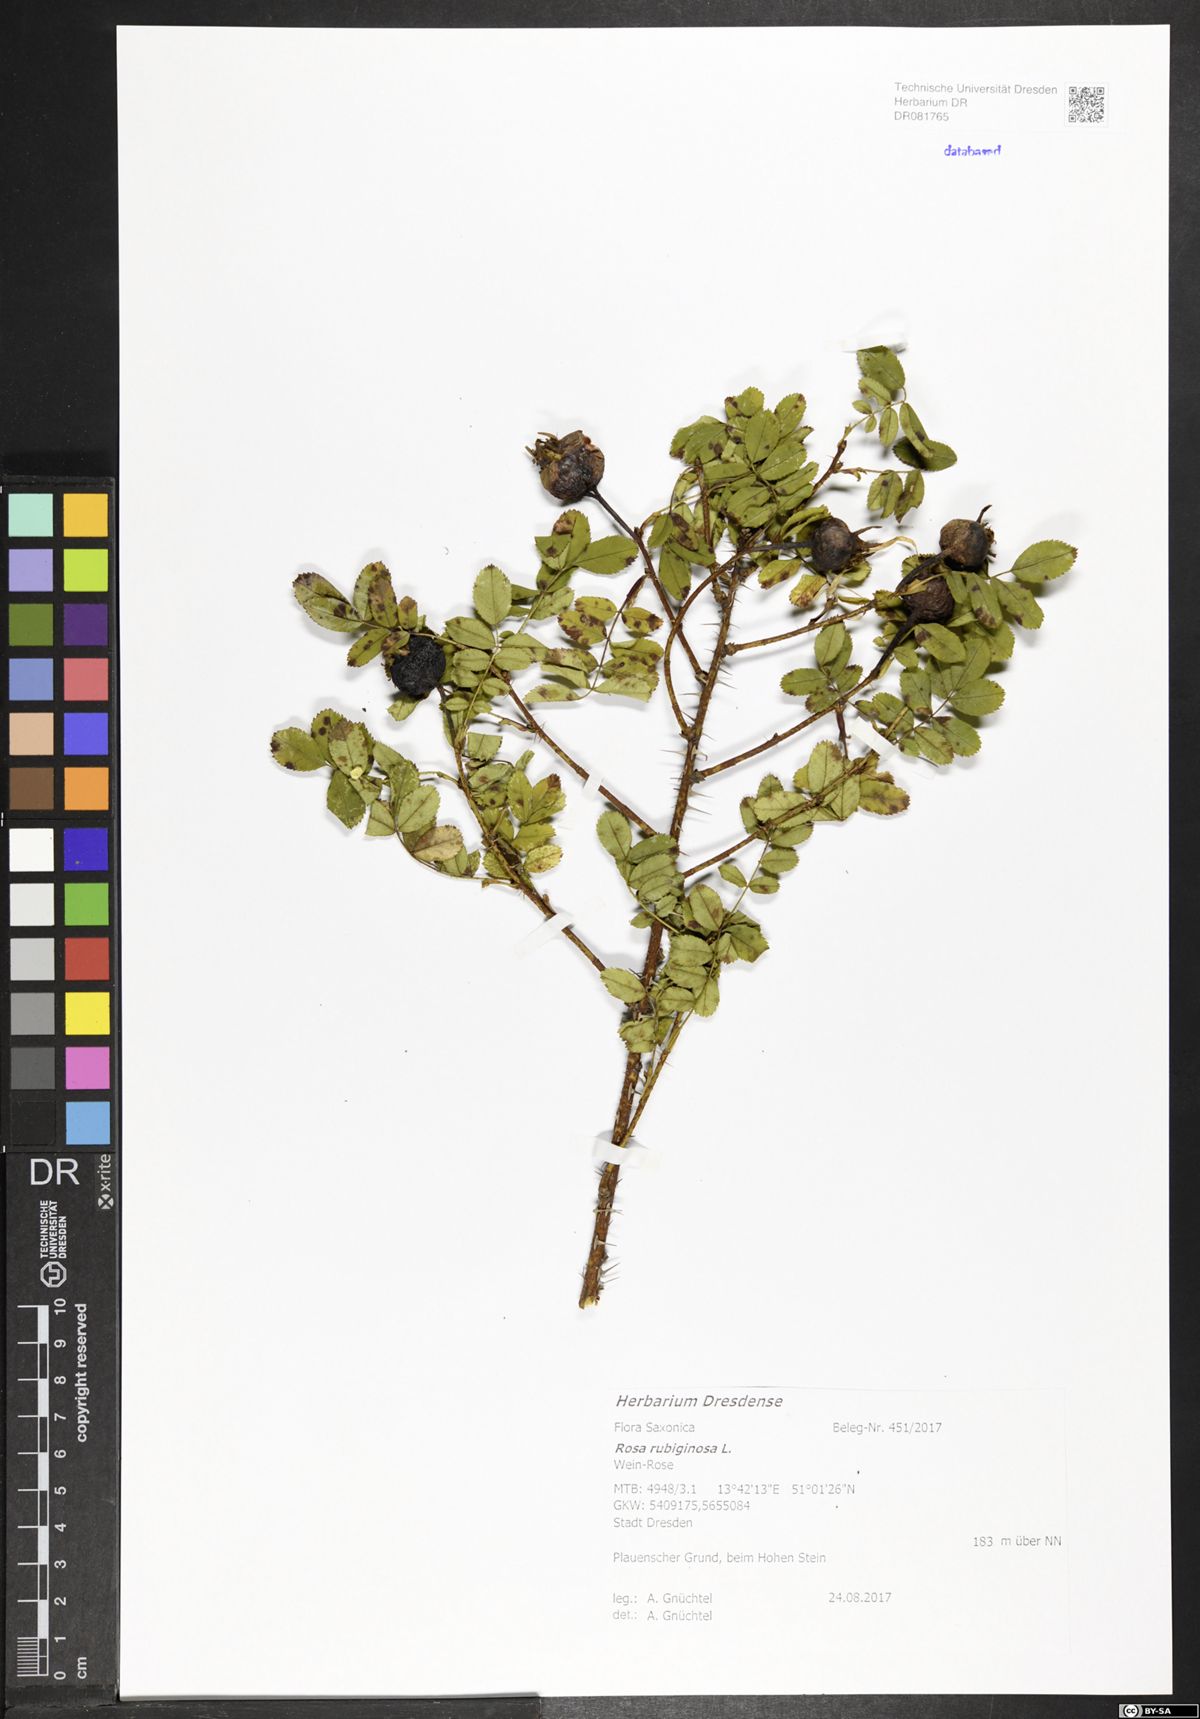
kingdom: Plantae
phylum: Tracheophyta
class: Magnoliopsida
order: Rosales
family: Rosaceae
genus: Rosa
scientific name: Rosa rubiginosa
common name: Sweet-briar
